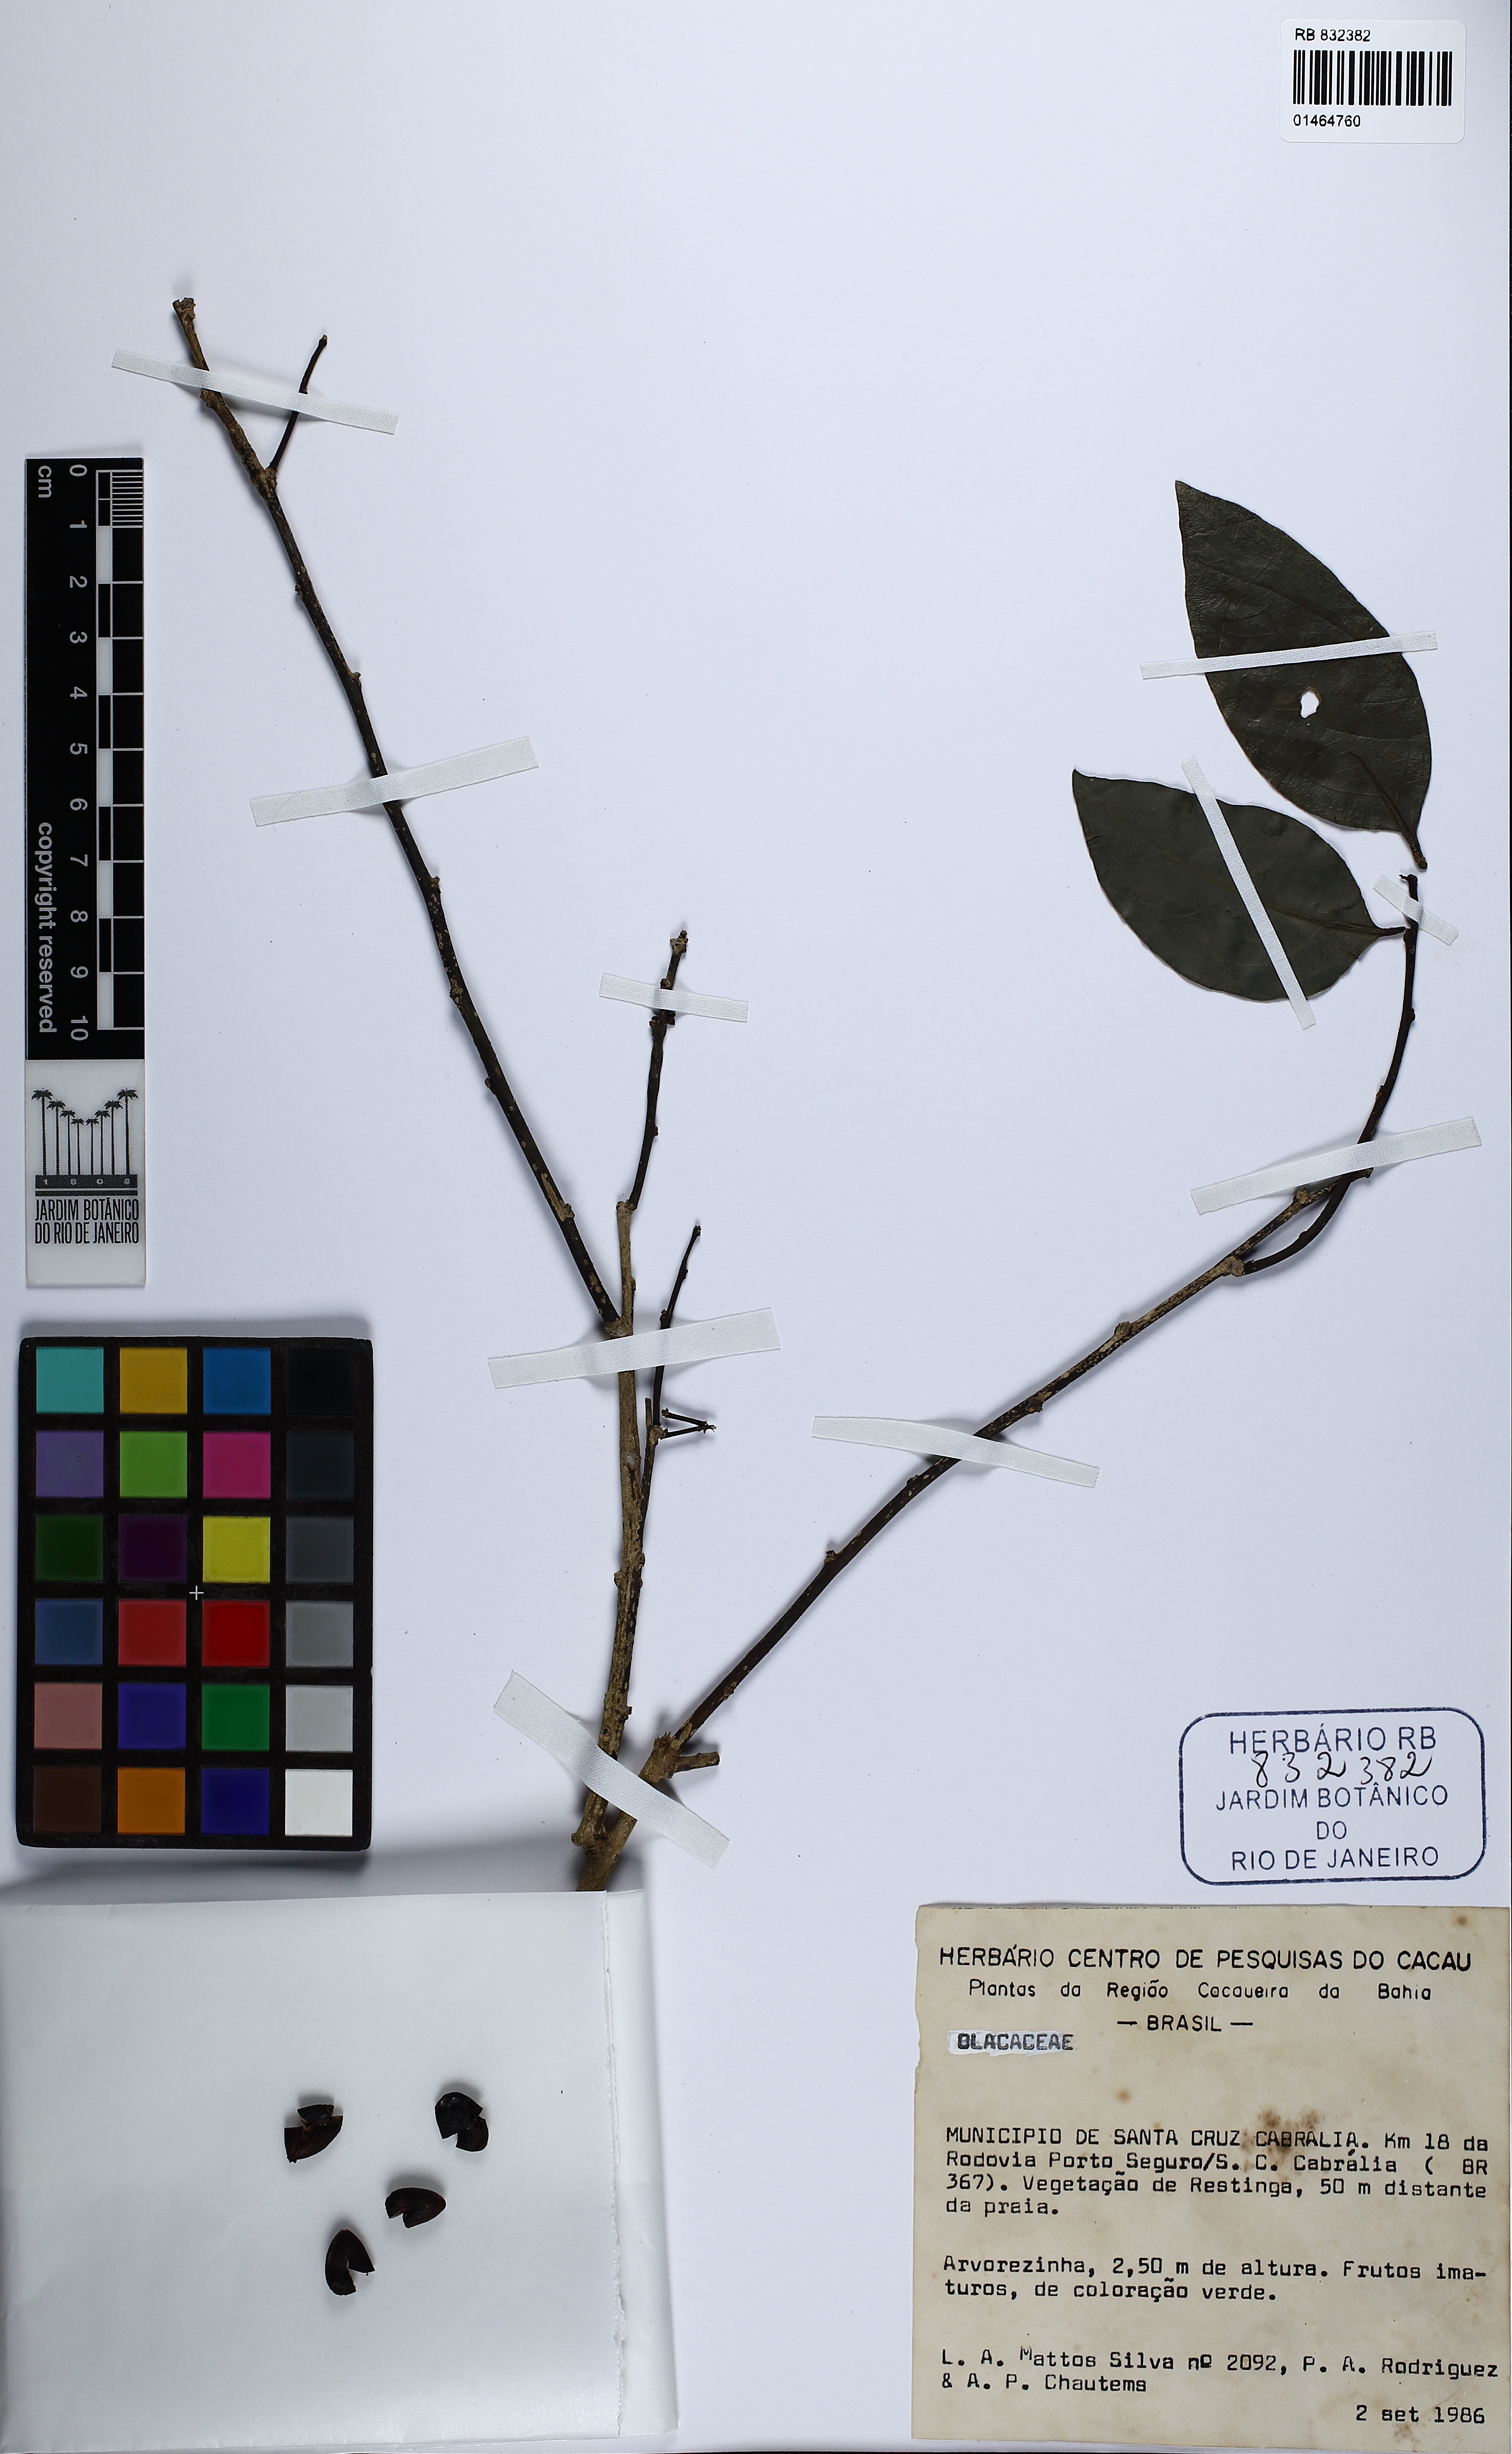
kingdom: Plantae
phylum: Tracheophyta
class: Magnoliopsida
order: Santalales
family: Olacaceae
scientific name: Olacaceae
